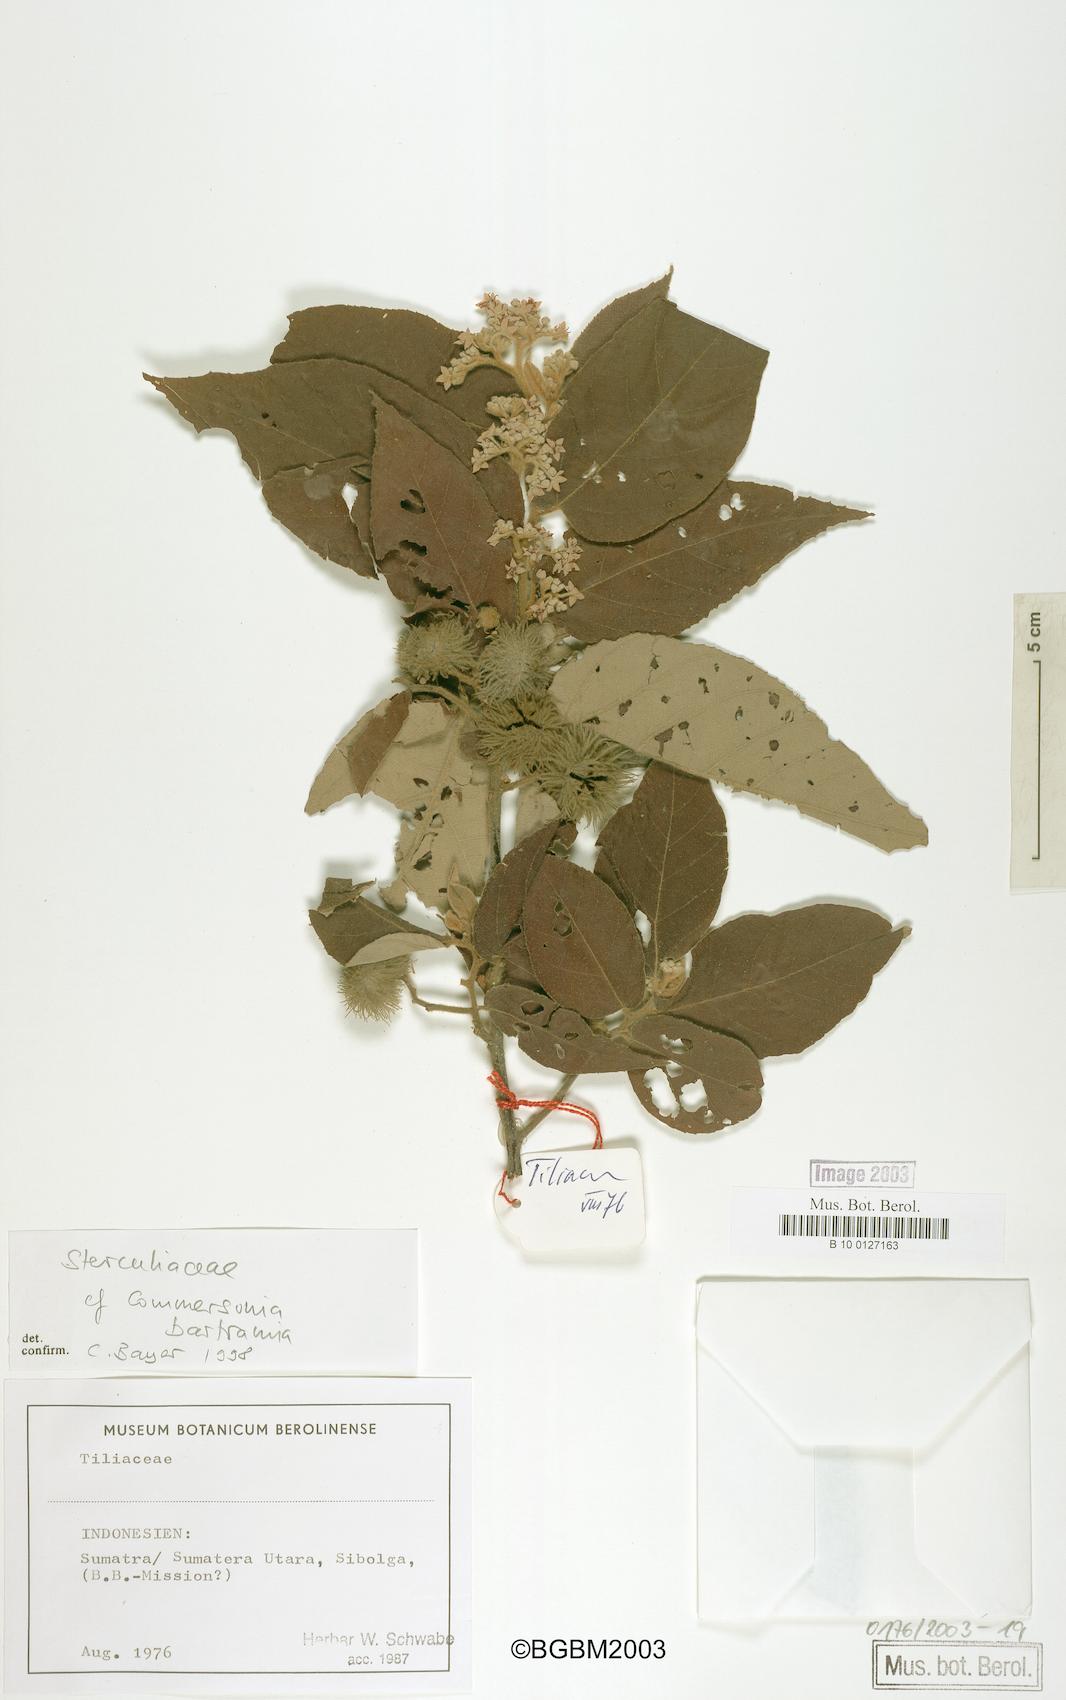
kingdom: Plantae
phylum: Tracheophyta
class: Magnoliopsida
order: Malvales
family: Malvaceae
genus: Commersonia
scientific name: Commersonia bartramia
